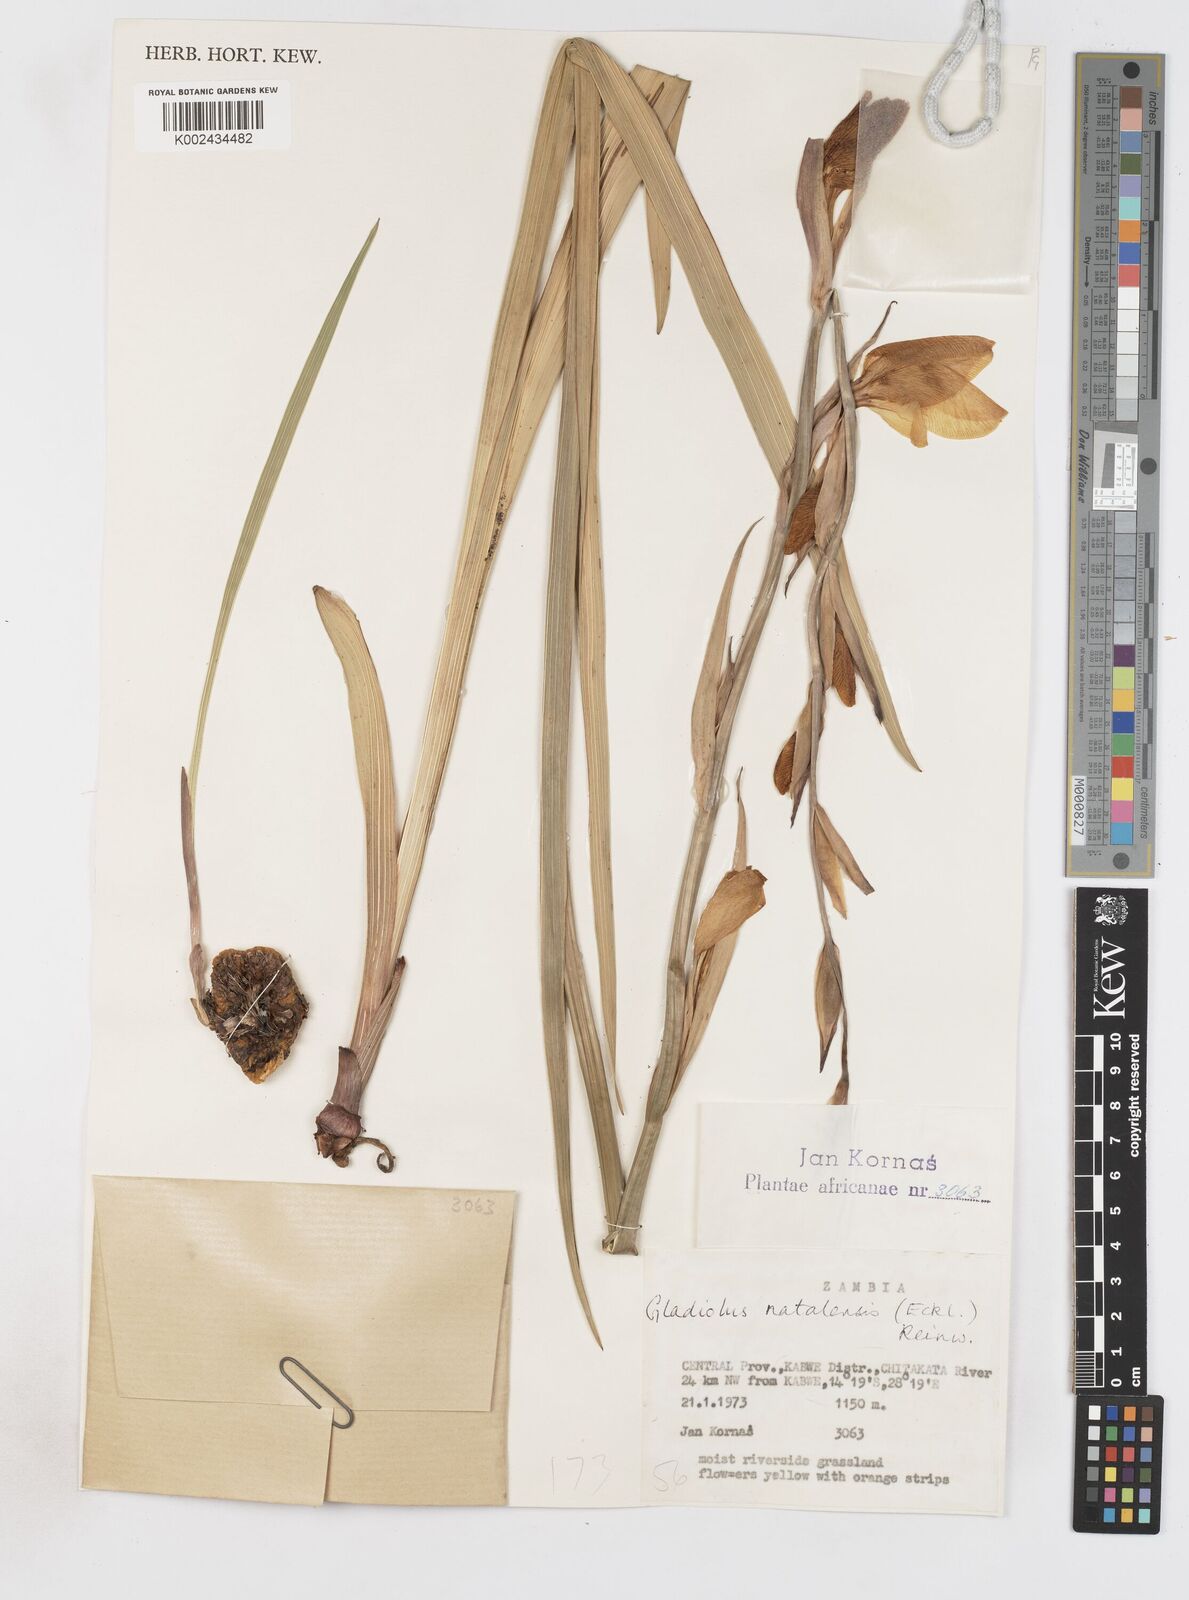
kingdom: Plantae
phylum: Tracheophyta
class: Liliopsida
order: Asparagales
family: Iridaceae
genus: Gladiolus
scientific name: Gladiolus dalenii
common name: Cornflag
